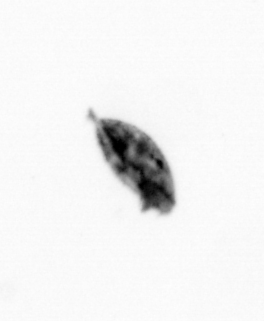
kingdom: Animalia
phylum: Arthropoda
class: Maxillopoda
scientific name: Maxillopoda
